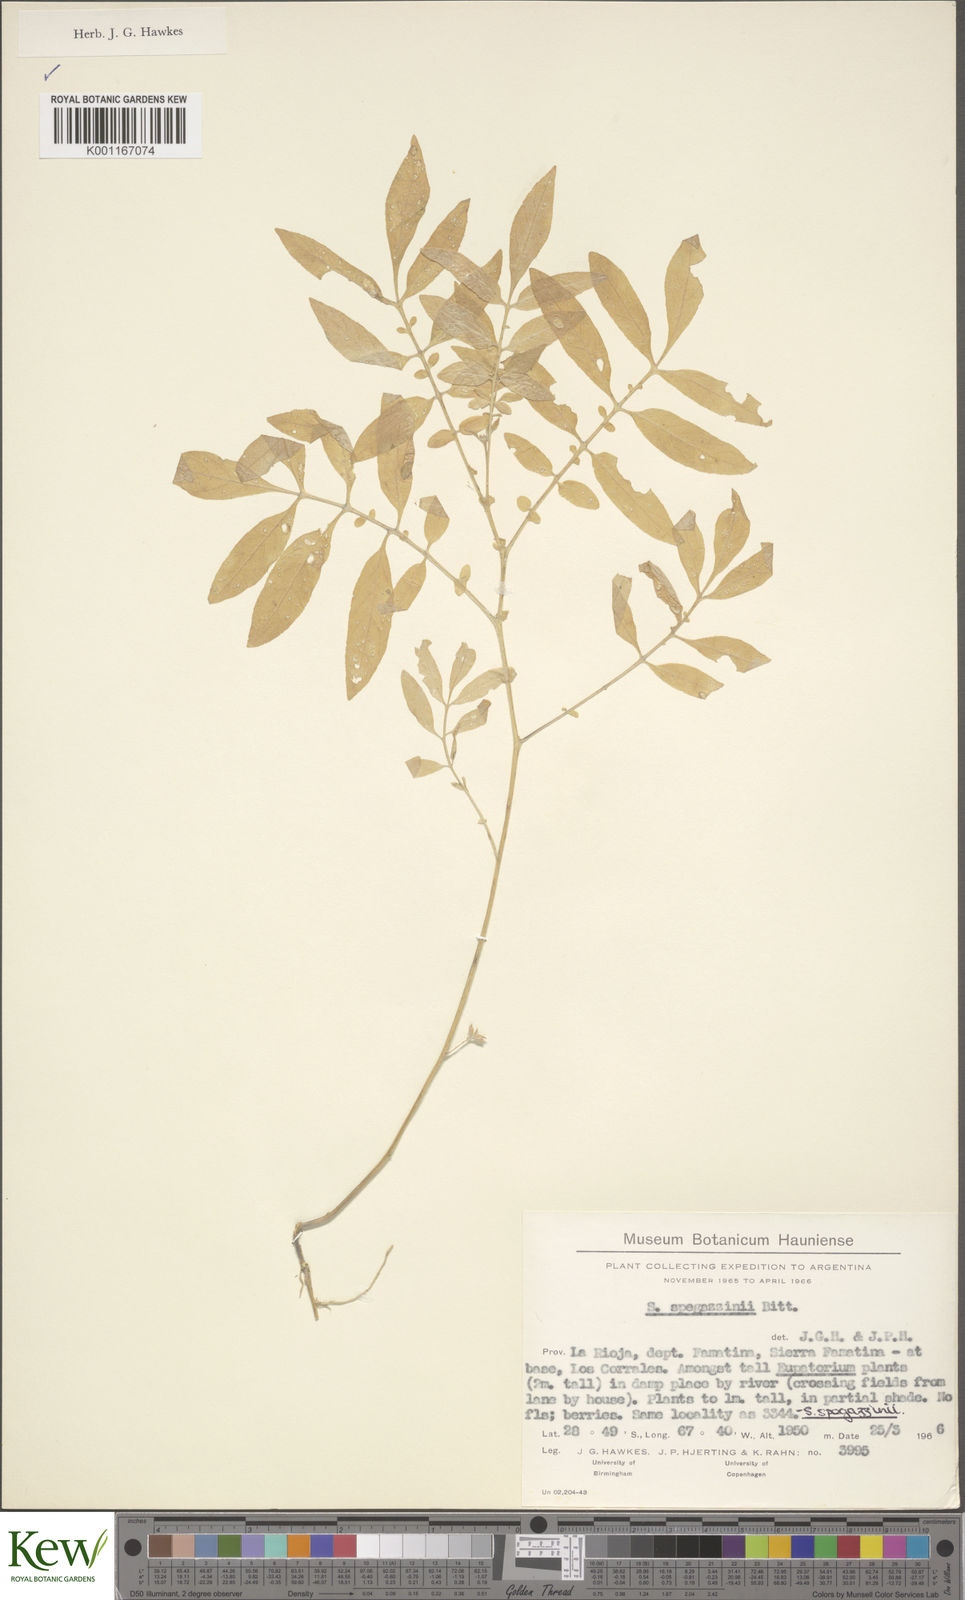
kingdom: Plantae
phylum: Tracheophyta
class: Magnoliopsida
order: Solanales
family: Solanaceae
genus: Solanum
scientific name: Solanum brevicaule
